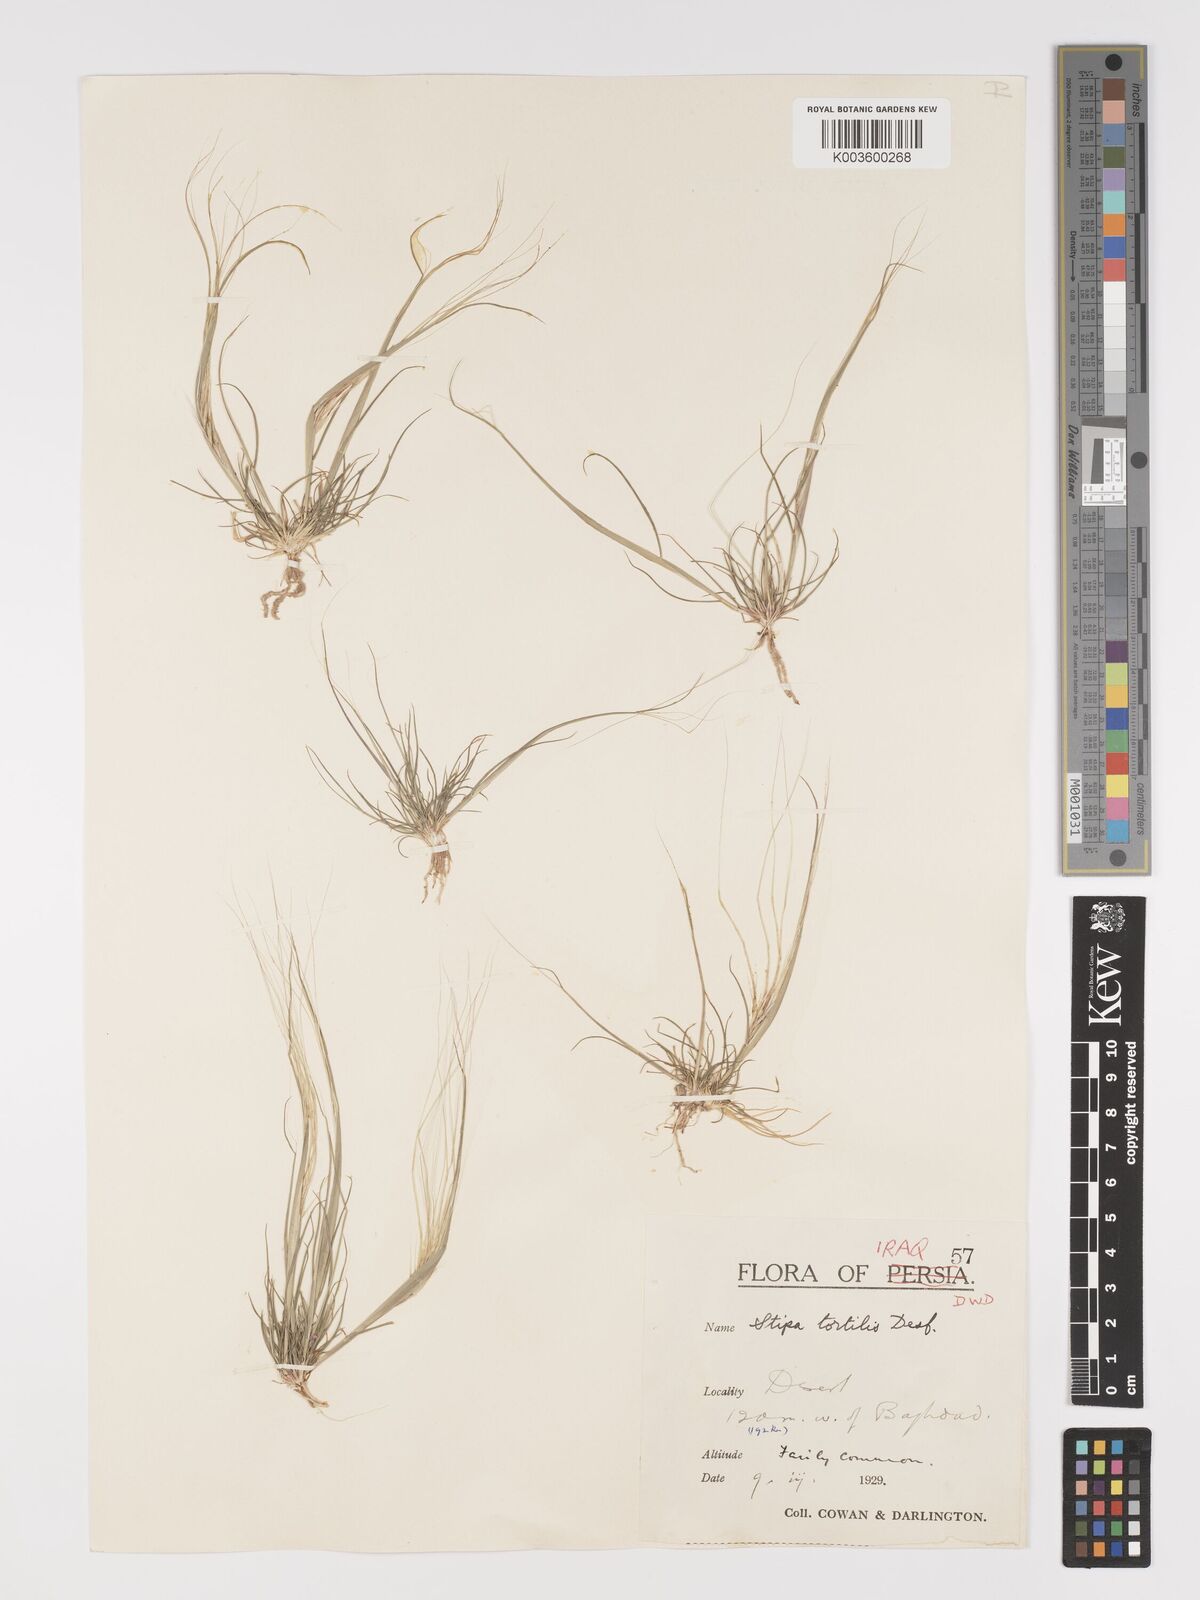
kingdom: Plantae
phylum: Tracheophyta
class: Liliopsida
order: Poales
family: Poaceae
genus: Stipellula
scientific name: Stipellula capensis
